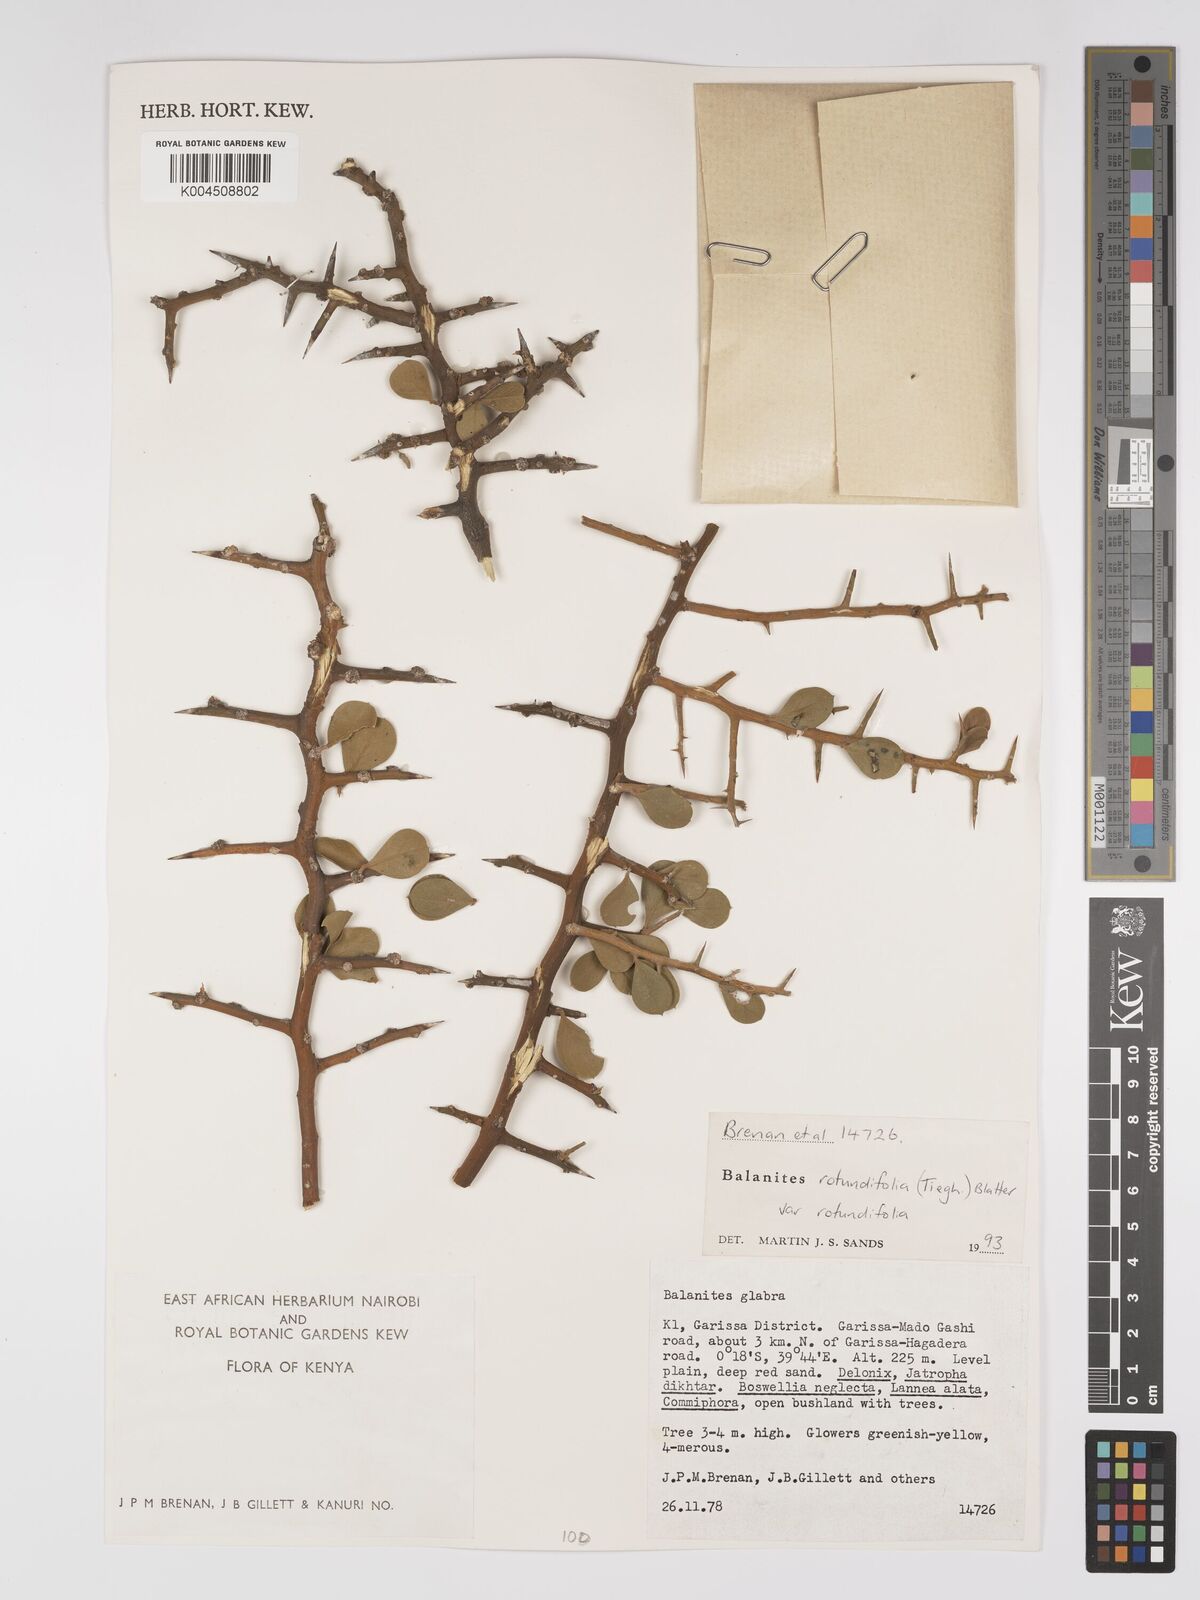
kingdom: Plantae
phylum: Tracheophyta
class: Magnoliopsida
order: Zygophyllales
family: Zygophyllaceae
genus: Balanites
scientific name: Balanites rotundifolia
